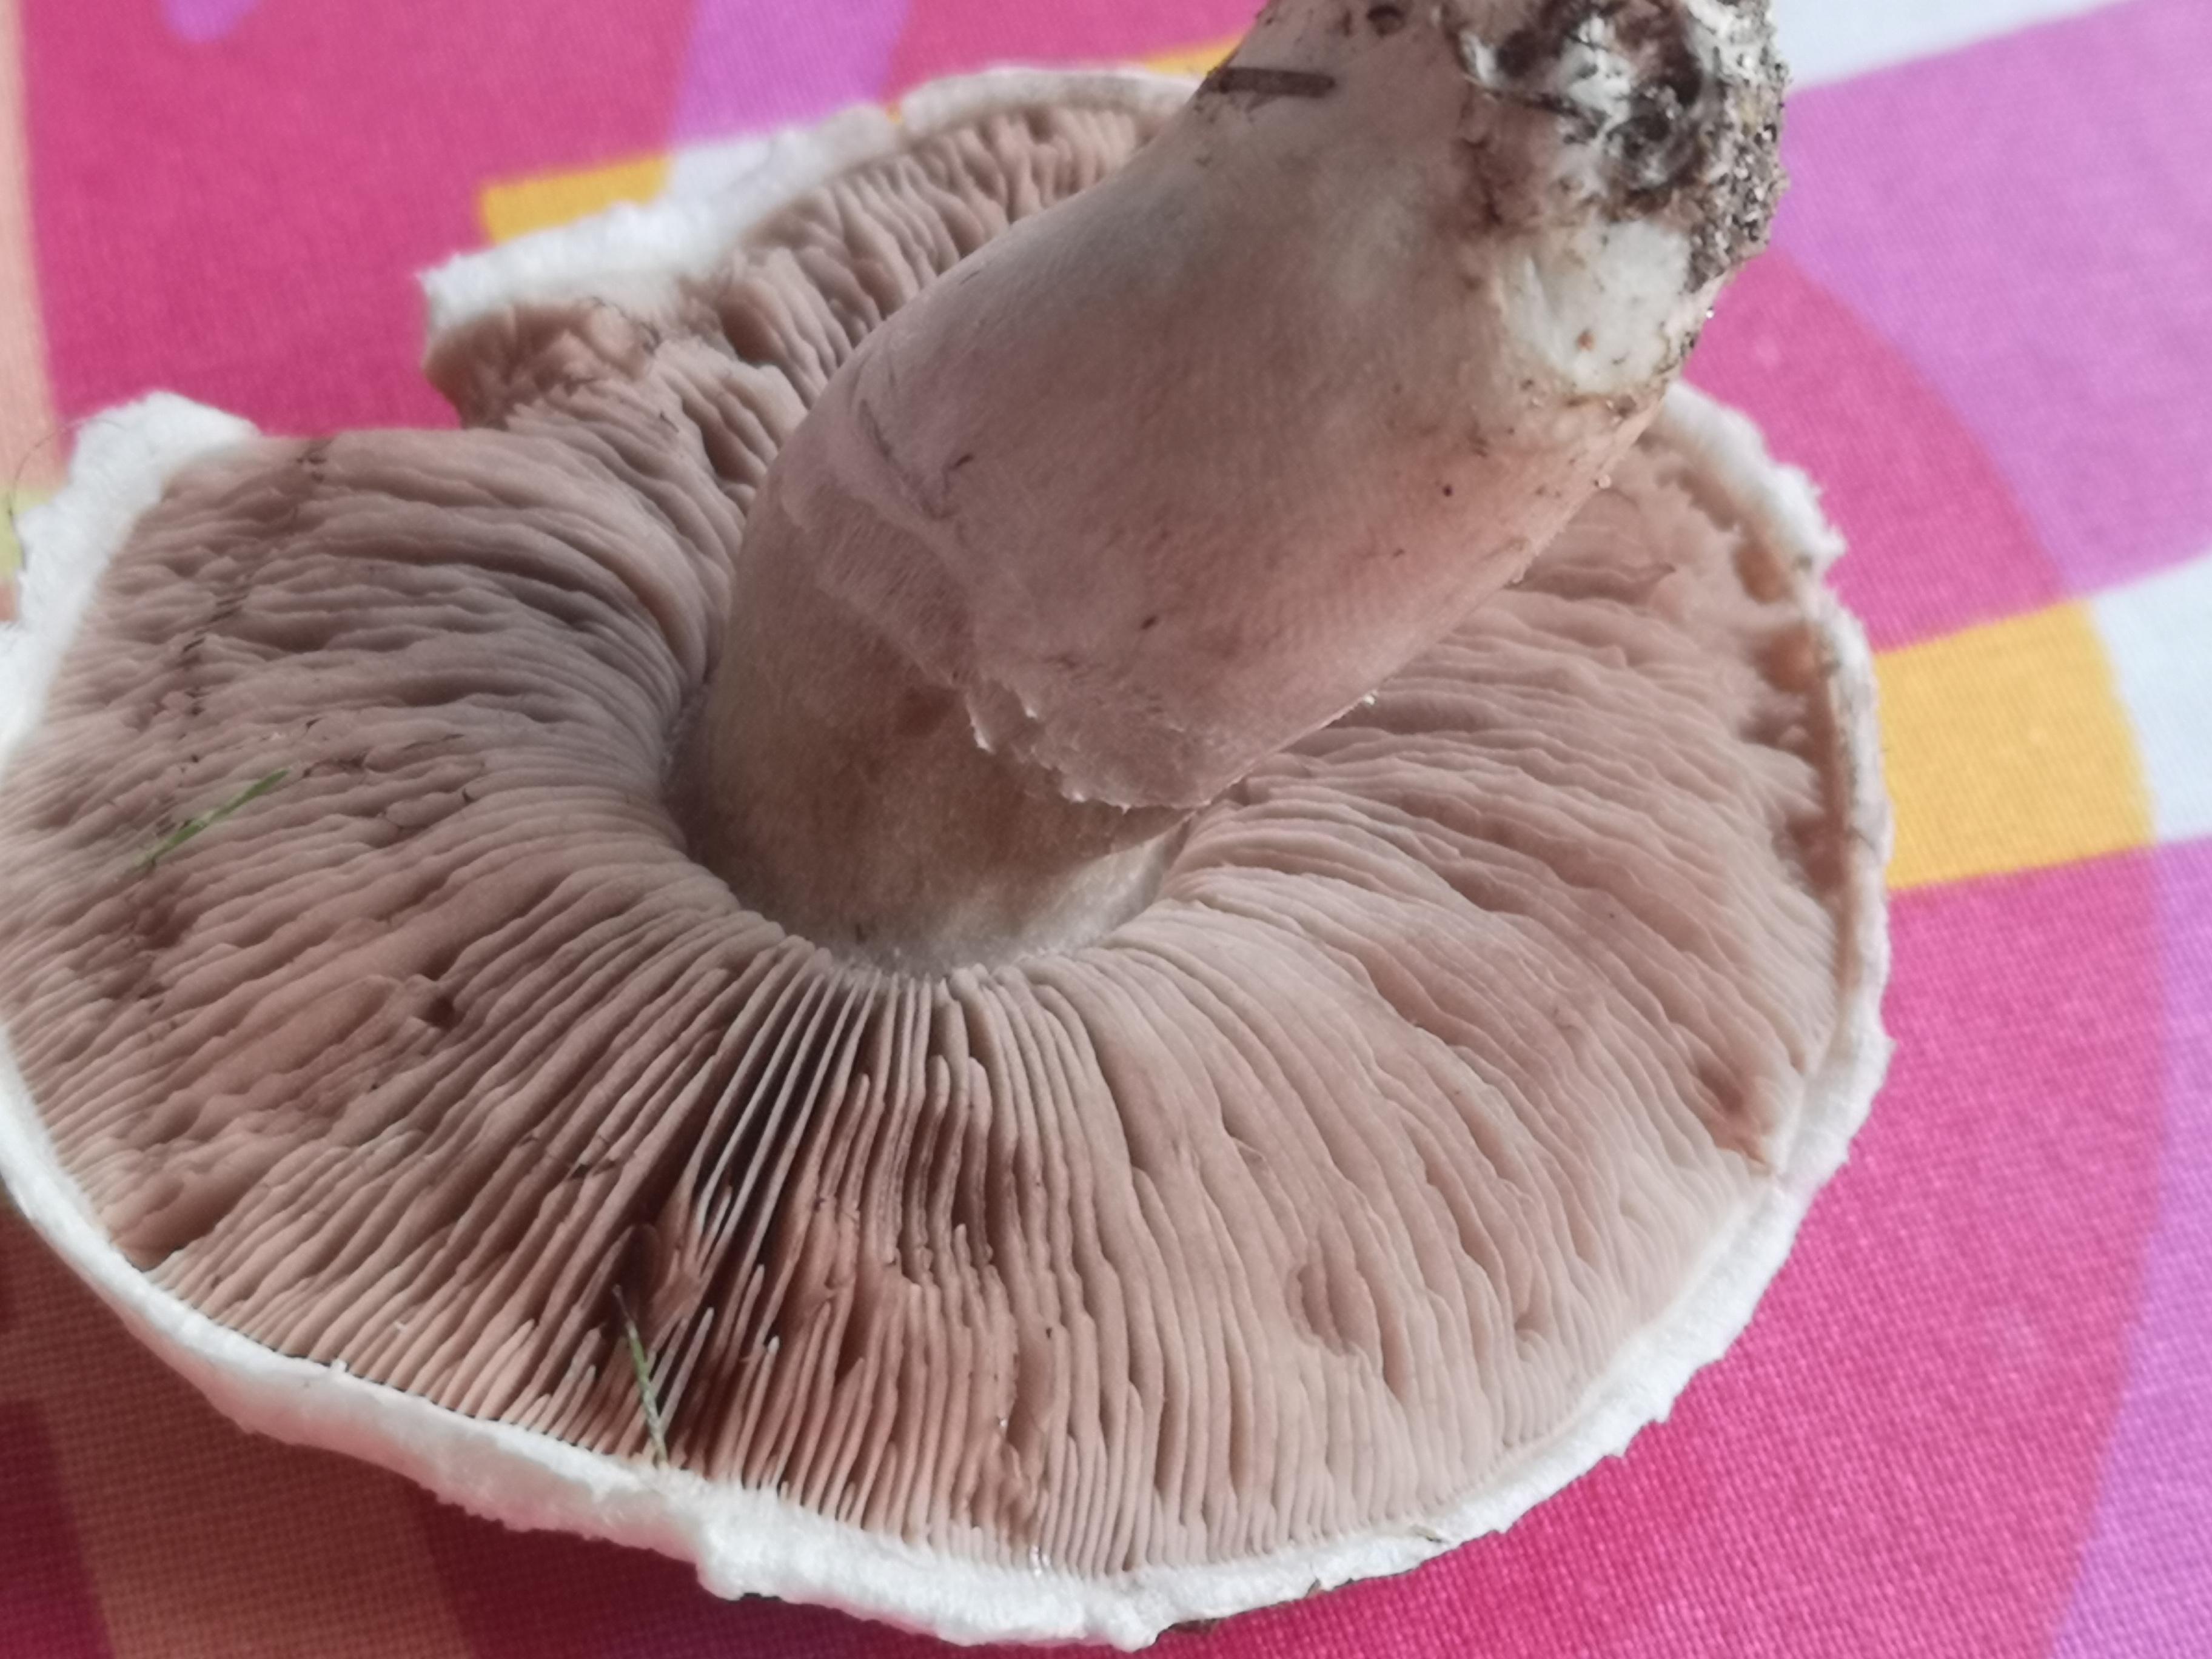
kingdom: Fungi
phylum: Basidiomycota
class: Agaricomycetes
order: Agaricales
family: Agaricaceae
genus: Agaricus
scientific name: Agaricus campestris
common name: mark-champignon
